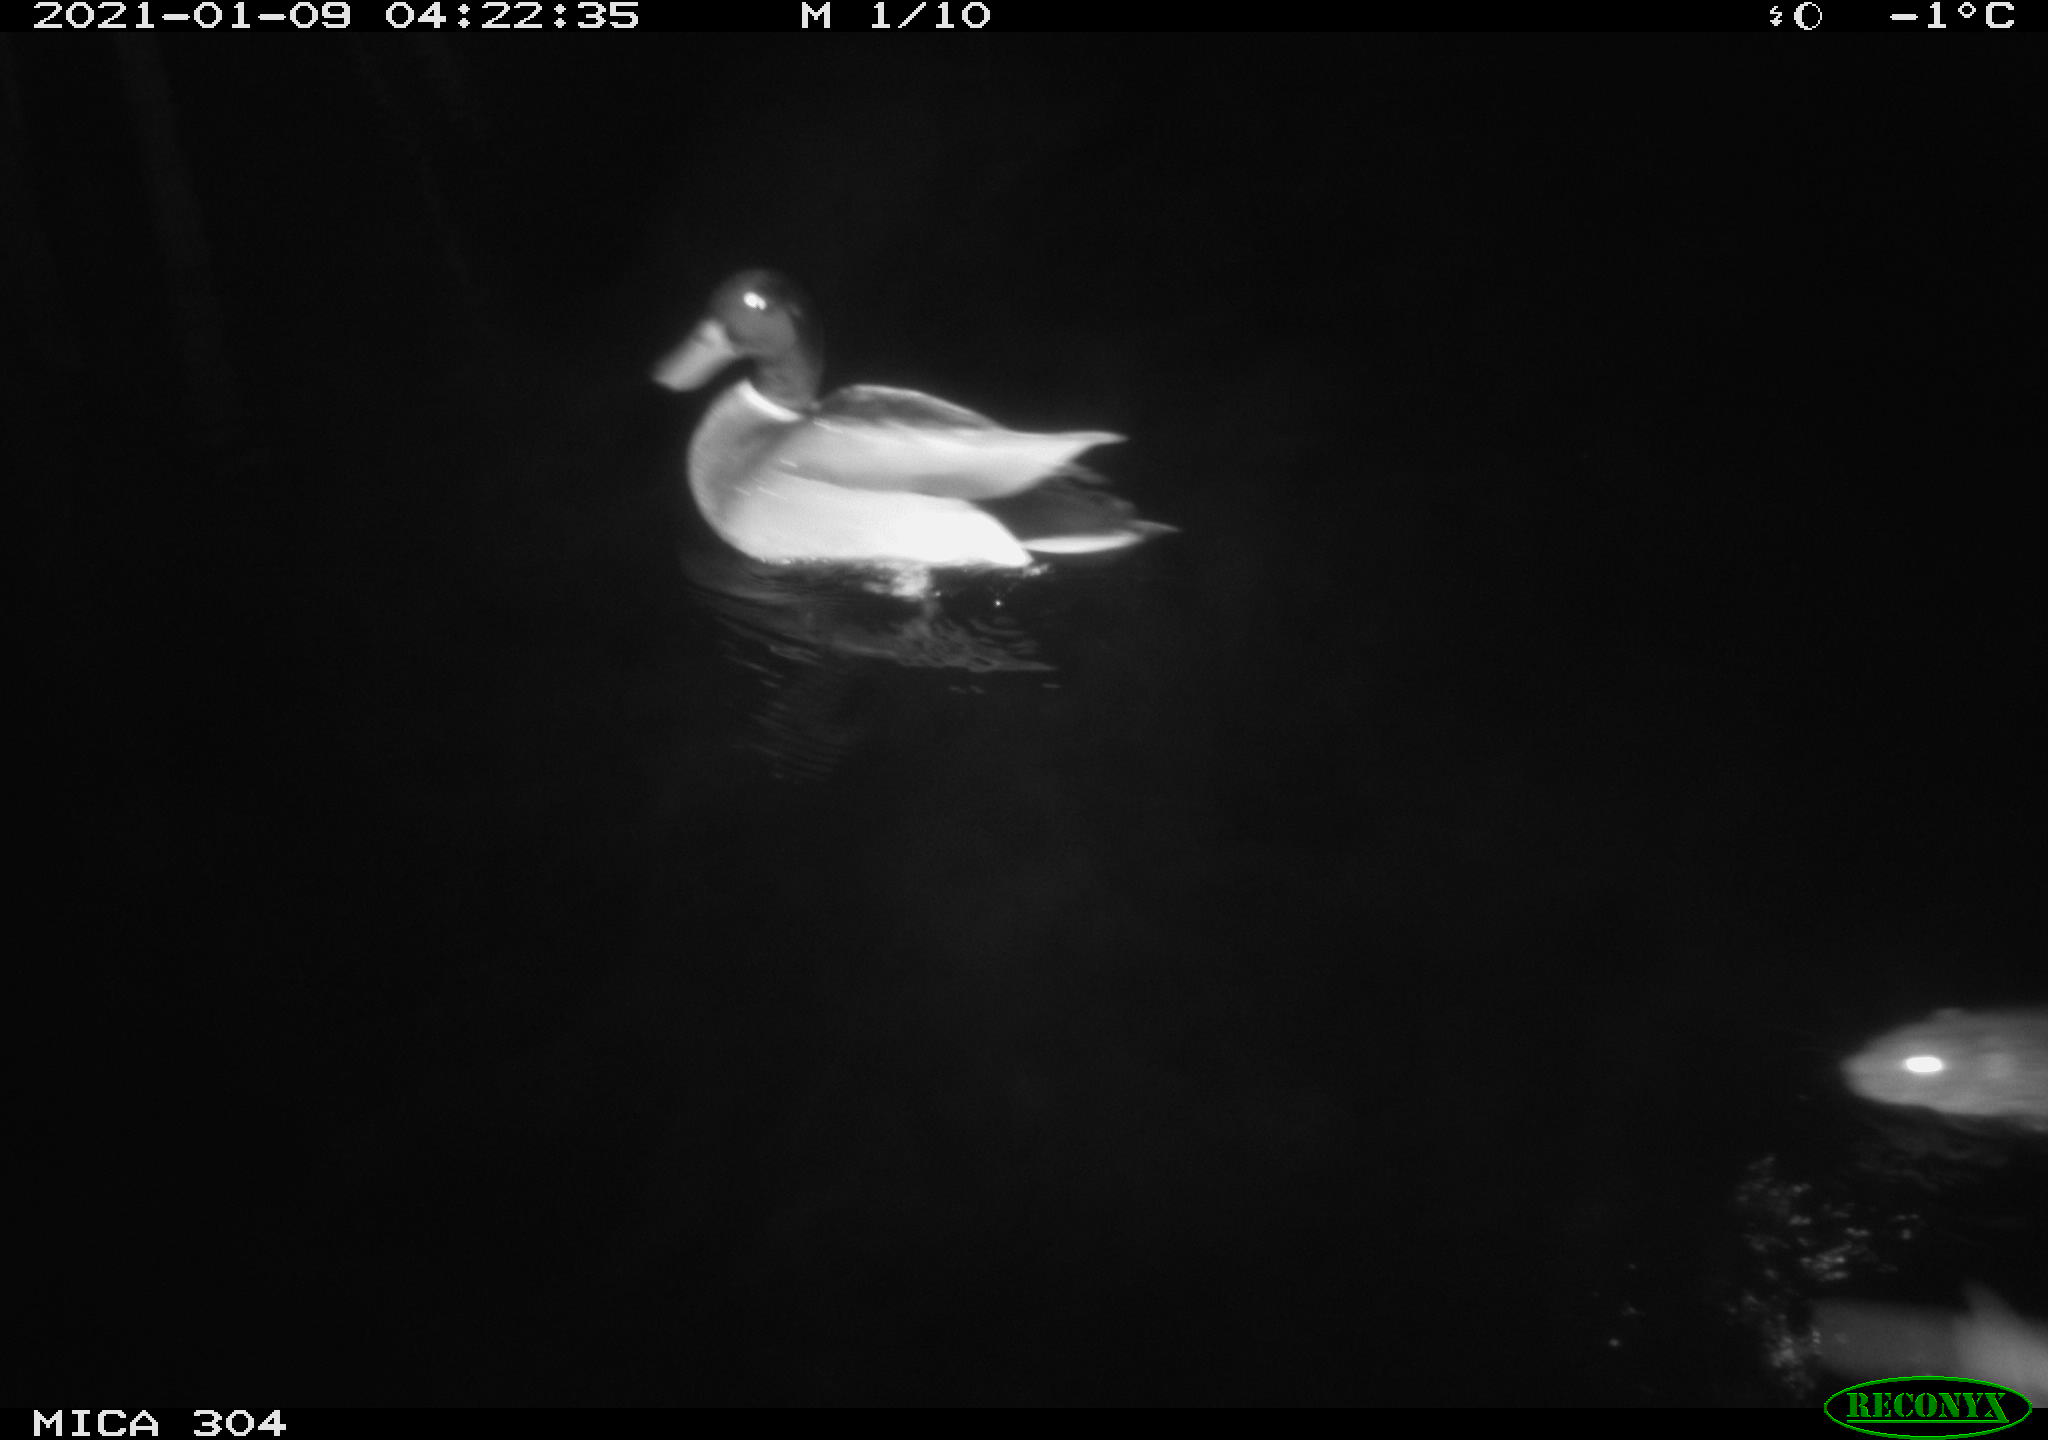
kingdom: Animalia
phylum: Chordata
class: Aves
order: Anseriformes
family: Anatidae
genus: Anas
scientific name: Anas platyrhynchos
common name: Mallard
